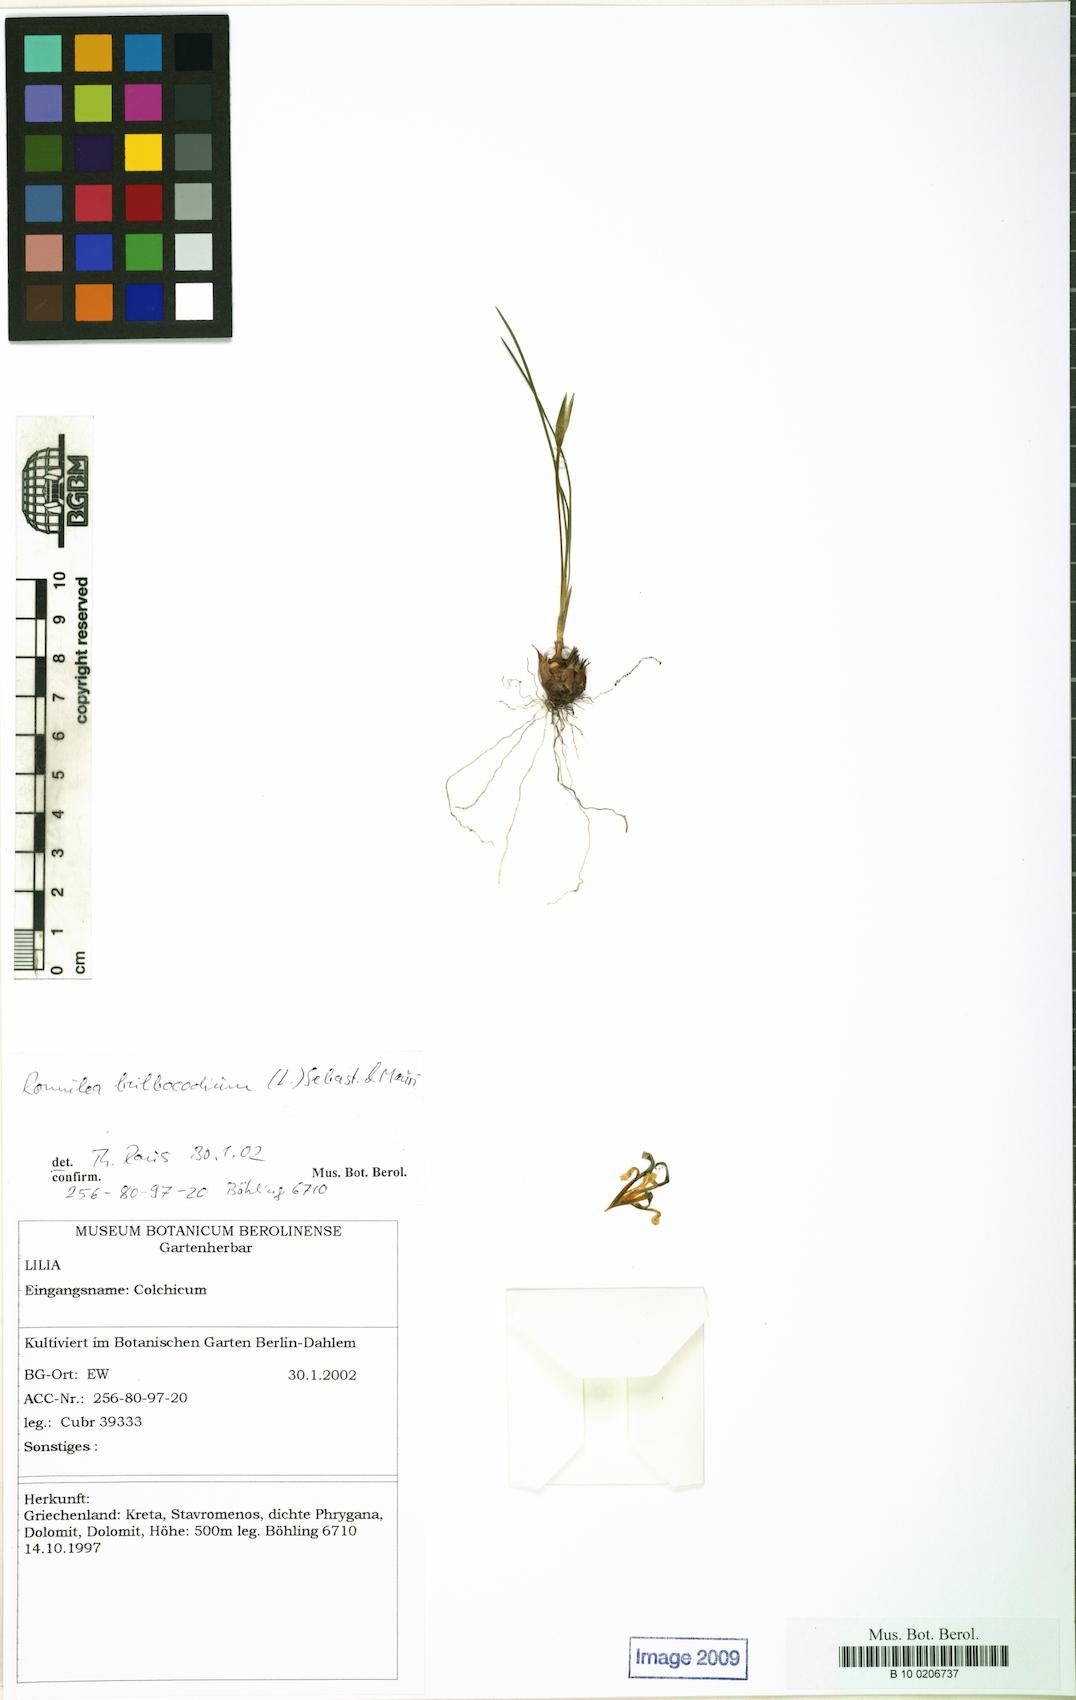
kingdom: Plantae
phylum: Tracheophyta
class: Liliopsida
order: Asparagales
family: Iridaceae
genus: Romulea
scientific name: Romulea bulbocodium
